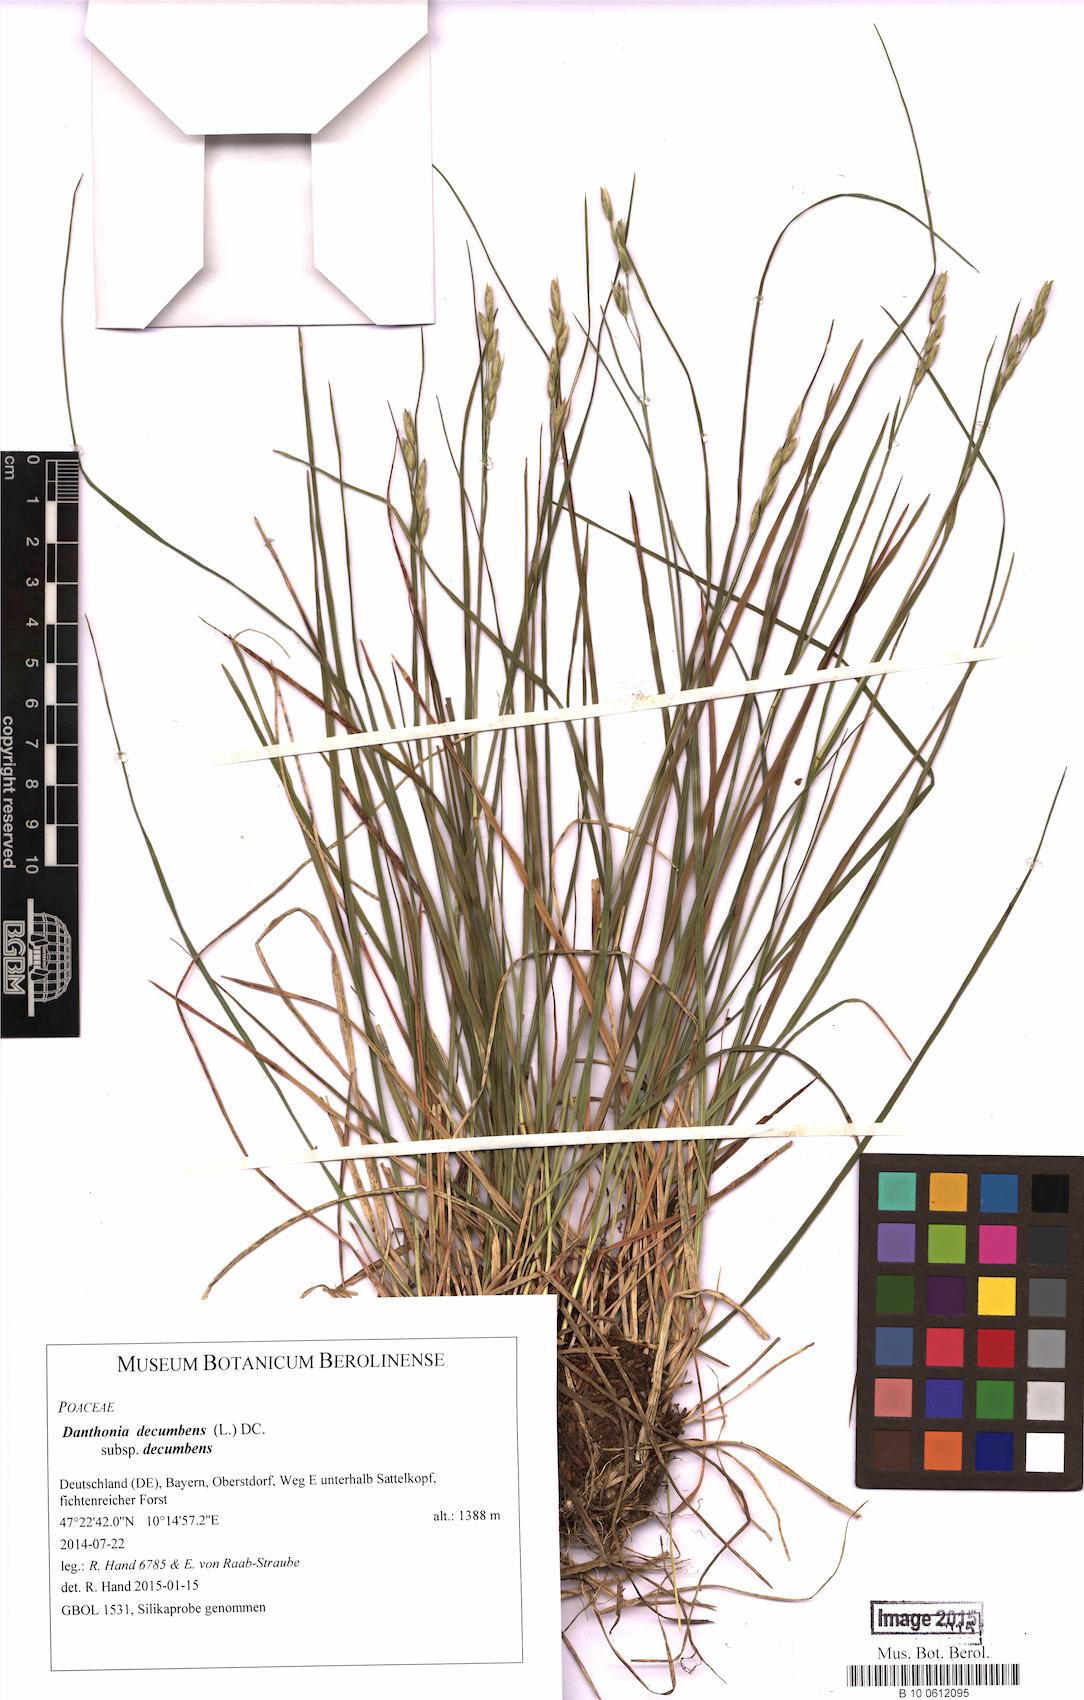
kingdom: Plantae
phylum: Tracheophyta
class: Liliopsida
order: Poales
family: Poaceae
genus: Danthonia
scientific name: Danthonia decumbens
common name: Common heathgrass
